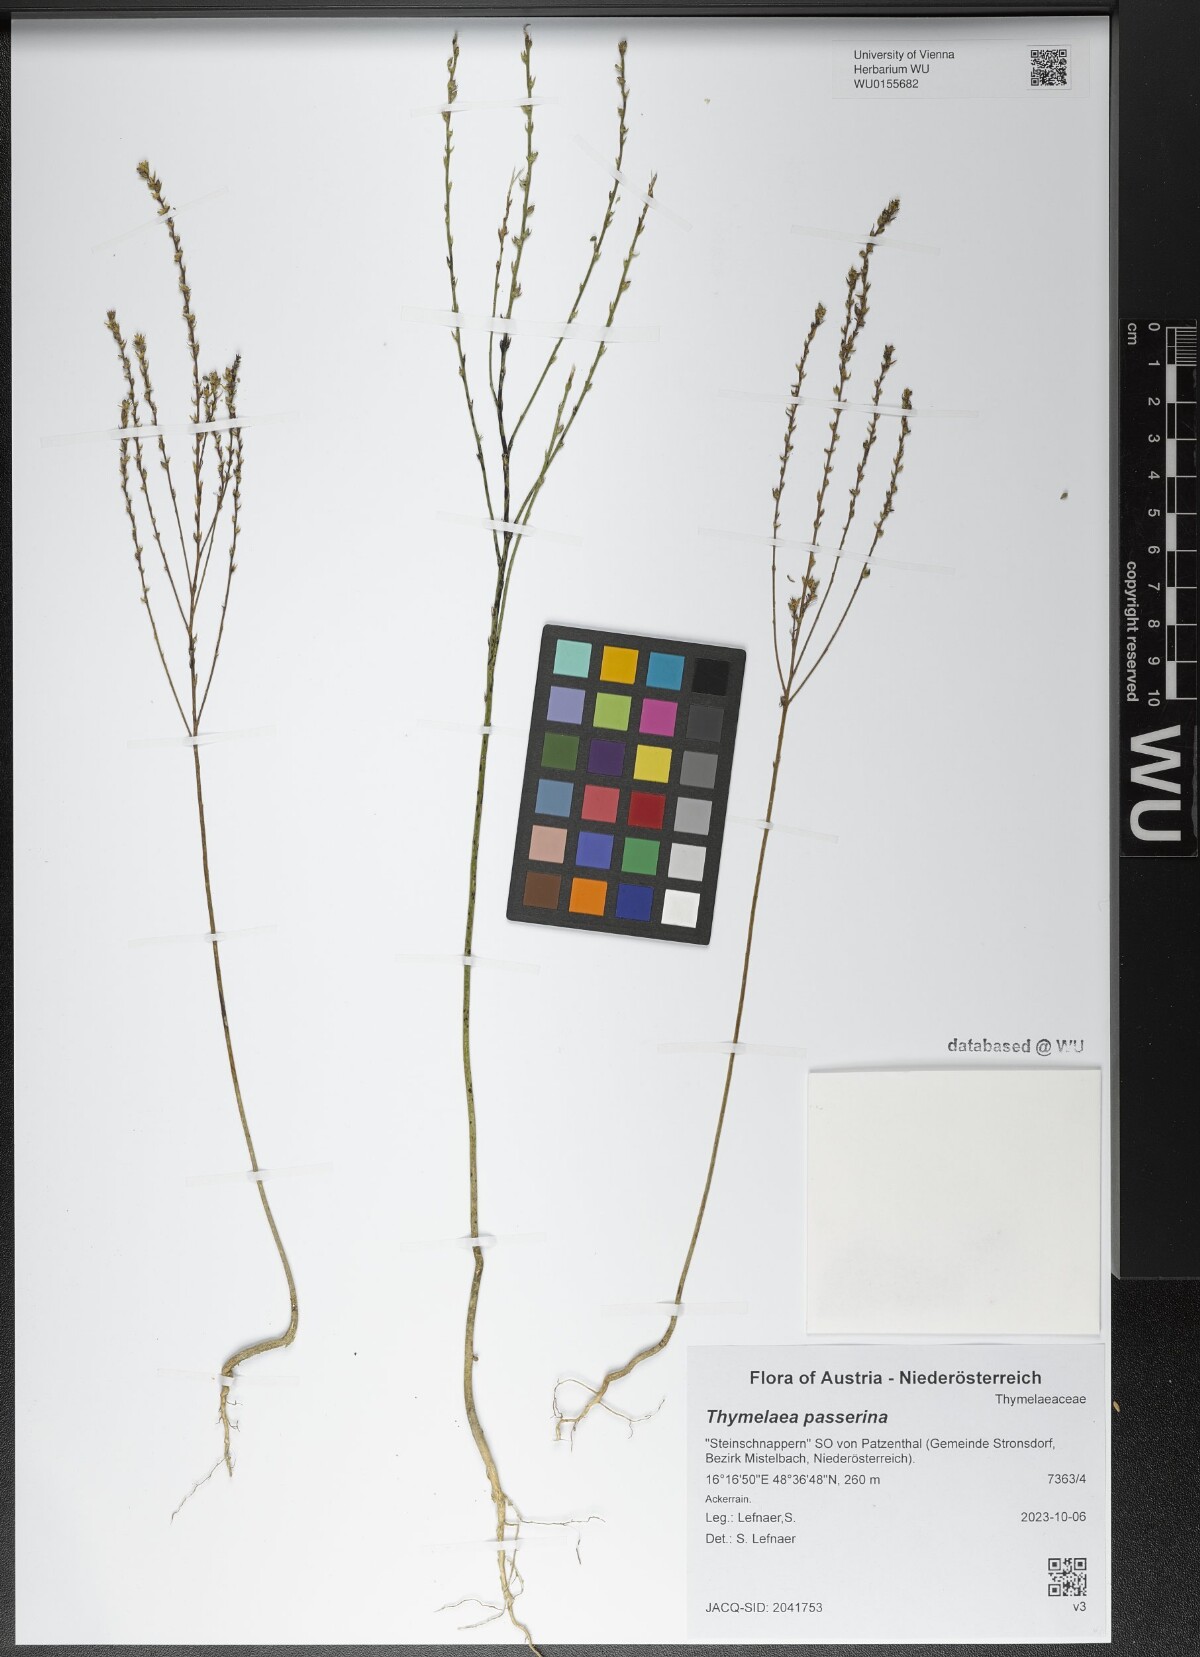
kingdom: Plantae
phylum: Tracheophyta
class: Magnoliopsida
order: Malvales
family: Thymelaeaceae
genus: Thymelaea
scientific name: Thymelaea passerina
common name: Annual thymelaea
